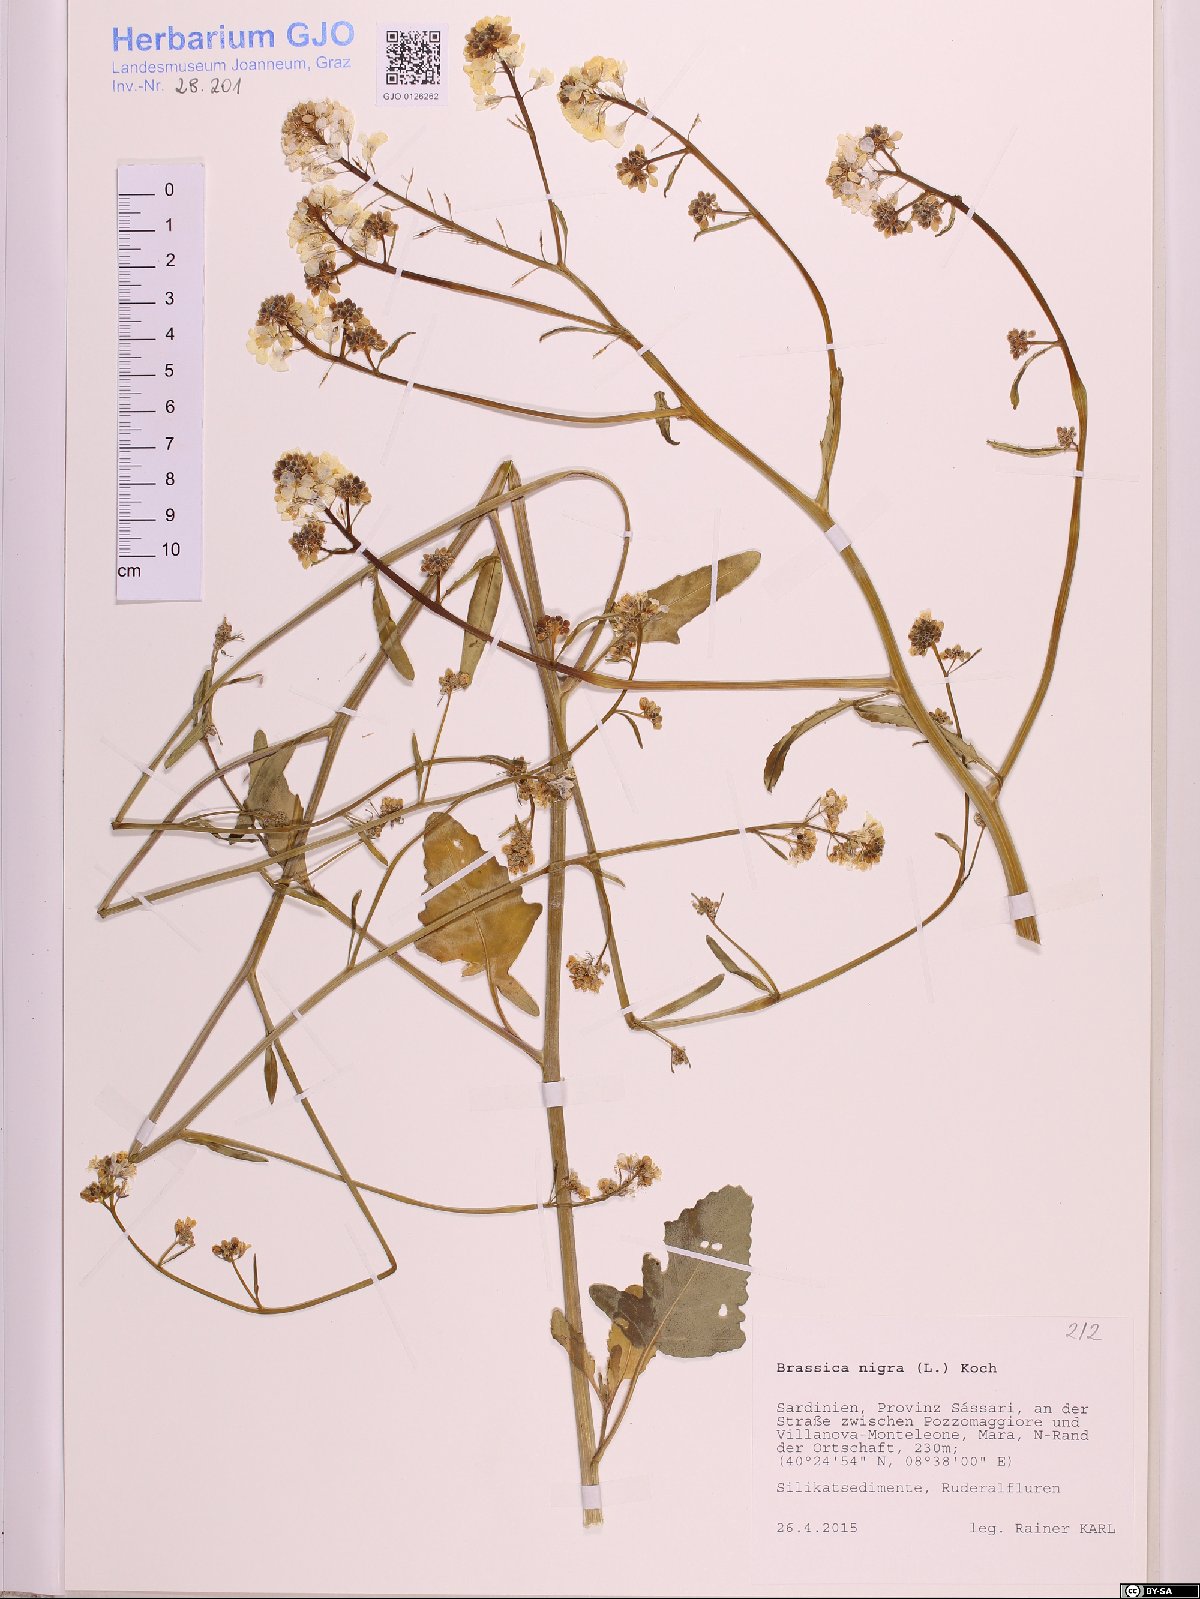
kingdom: Plantae
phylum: Tracheophyta
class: Magnoliopsida
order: Brassicales
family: Brassicaceae
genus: Brassica
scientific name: Brassica nigra
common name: Black mustard
